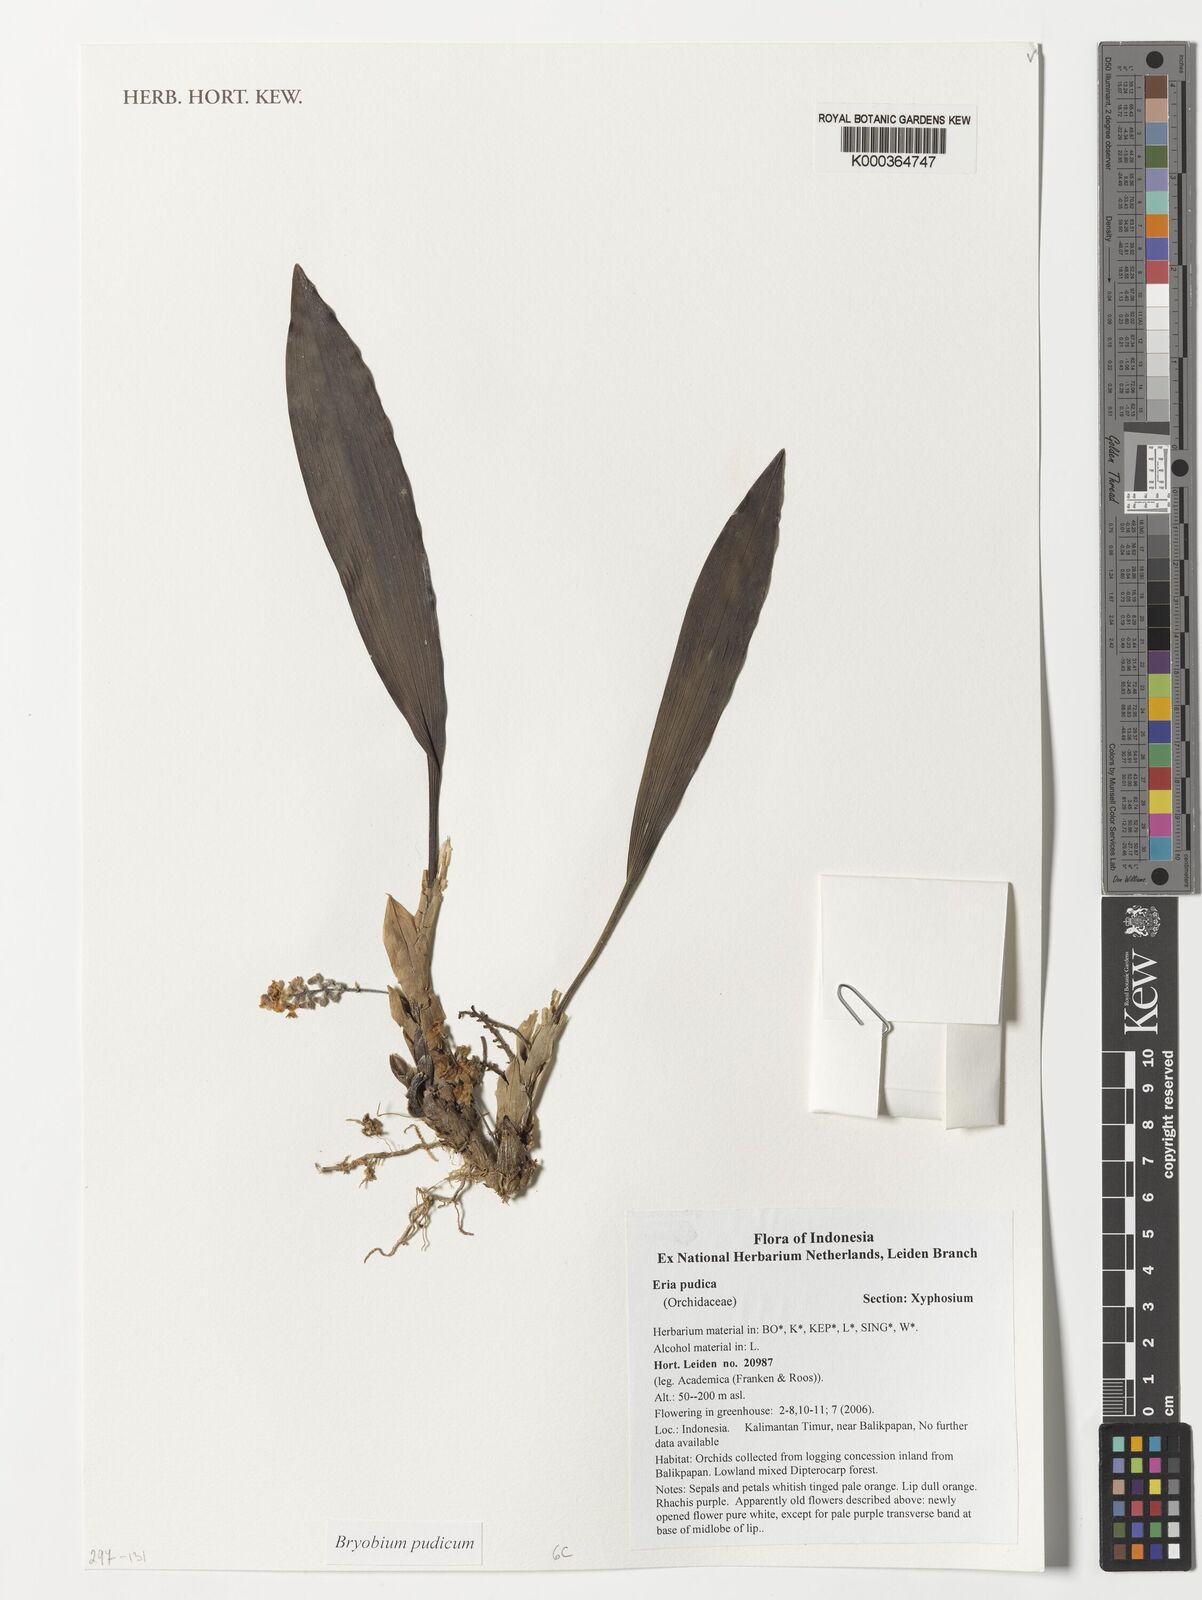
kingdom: Plantae
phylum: Tracheophyta
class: Liliopsida
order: Asparagales
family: Orchidaceae
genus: Bryobium
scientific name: Bryobium pudicum
